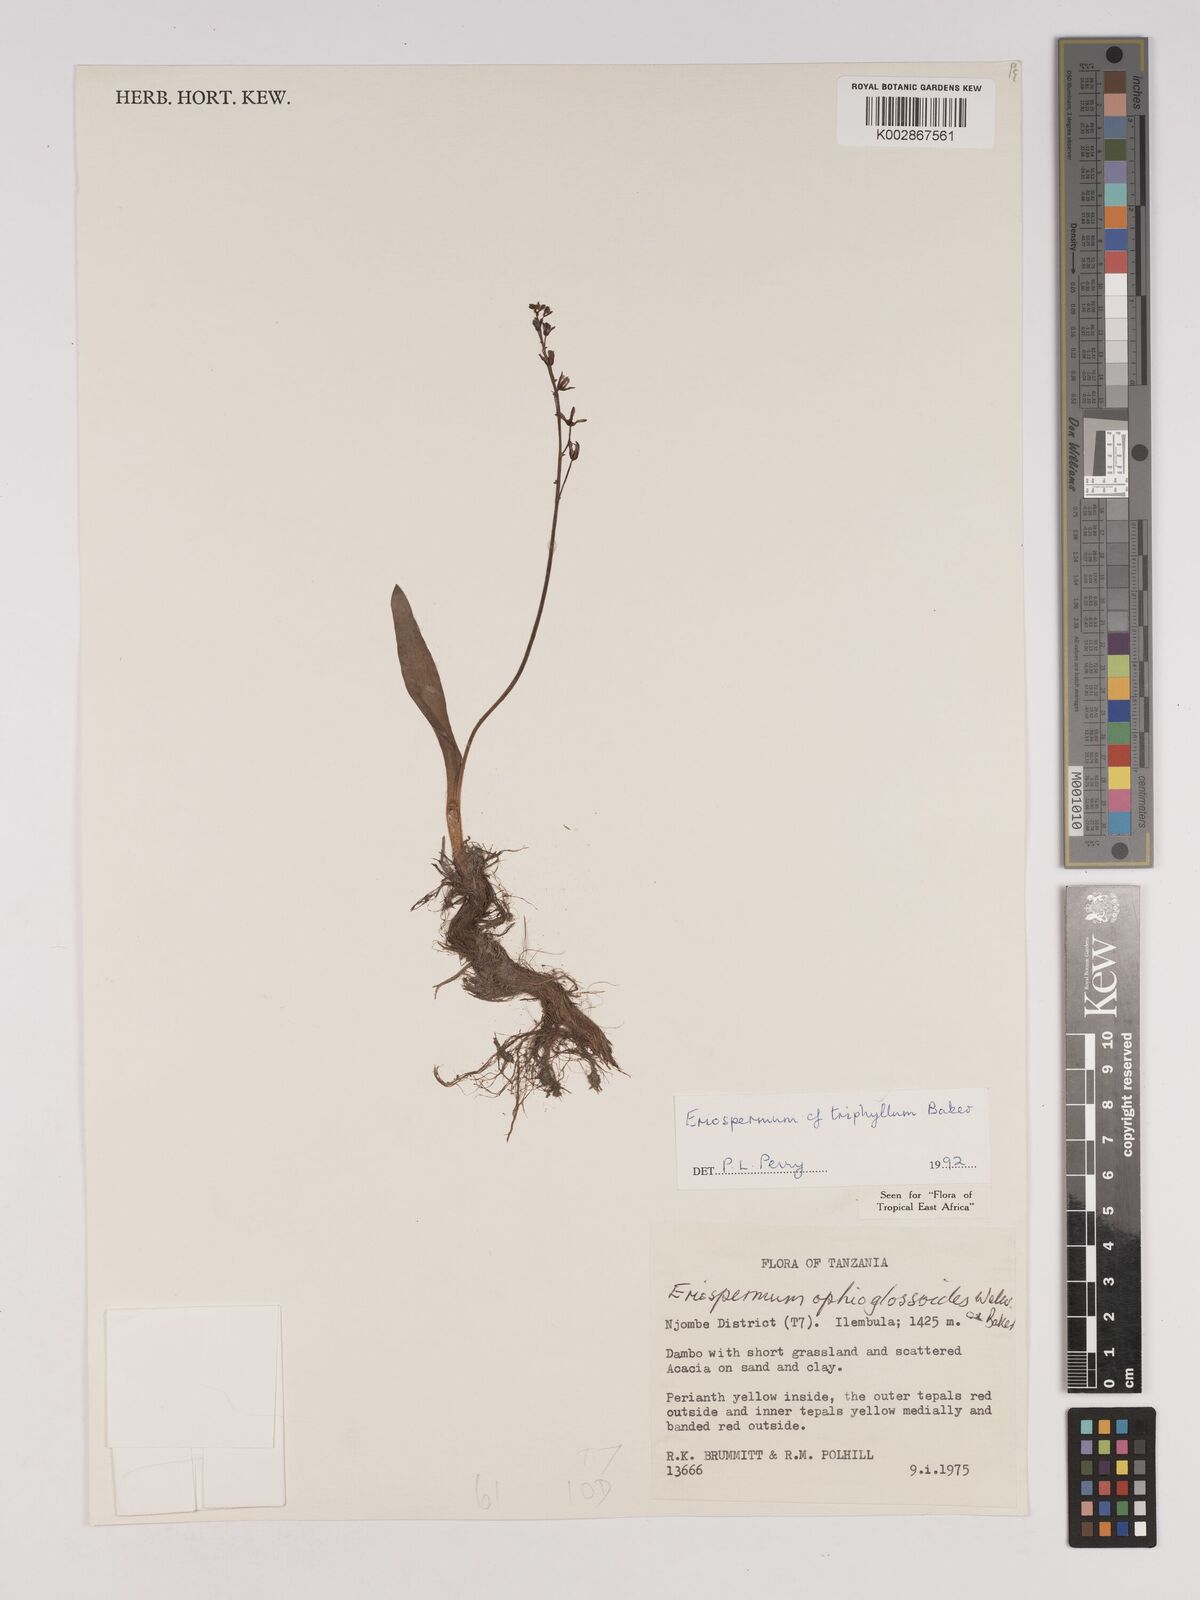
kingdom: Plantae
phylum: Tracheophyta
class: Liliopsida
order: Asparagales
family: Asparagaceae
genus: Eriospermum
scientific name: Eriospermum triphyllum
